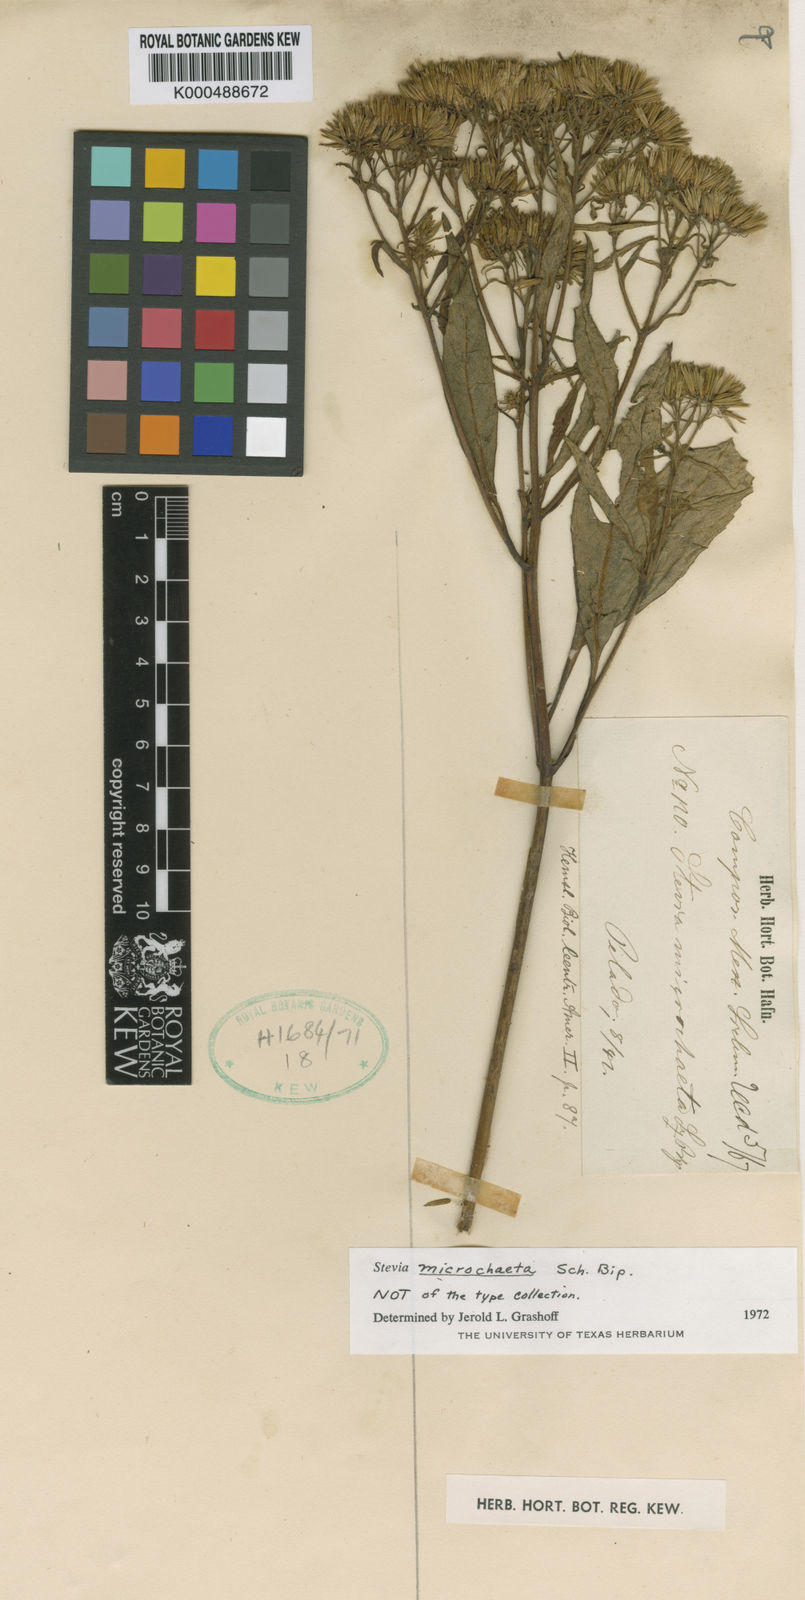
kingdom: Plantae
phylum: Tracheophyta
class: Magnoliopsida
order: Asterales
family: Asteraceae
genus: Stevia
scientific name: Stevia microchaeta
